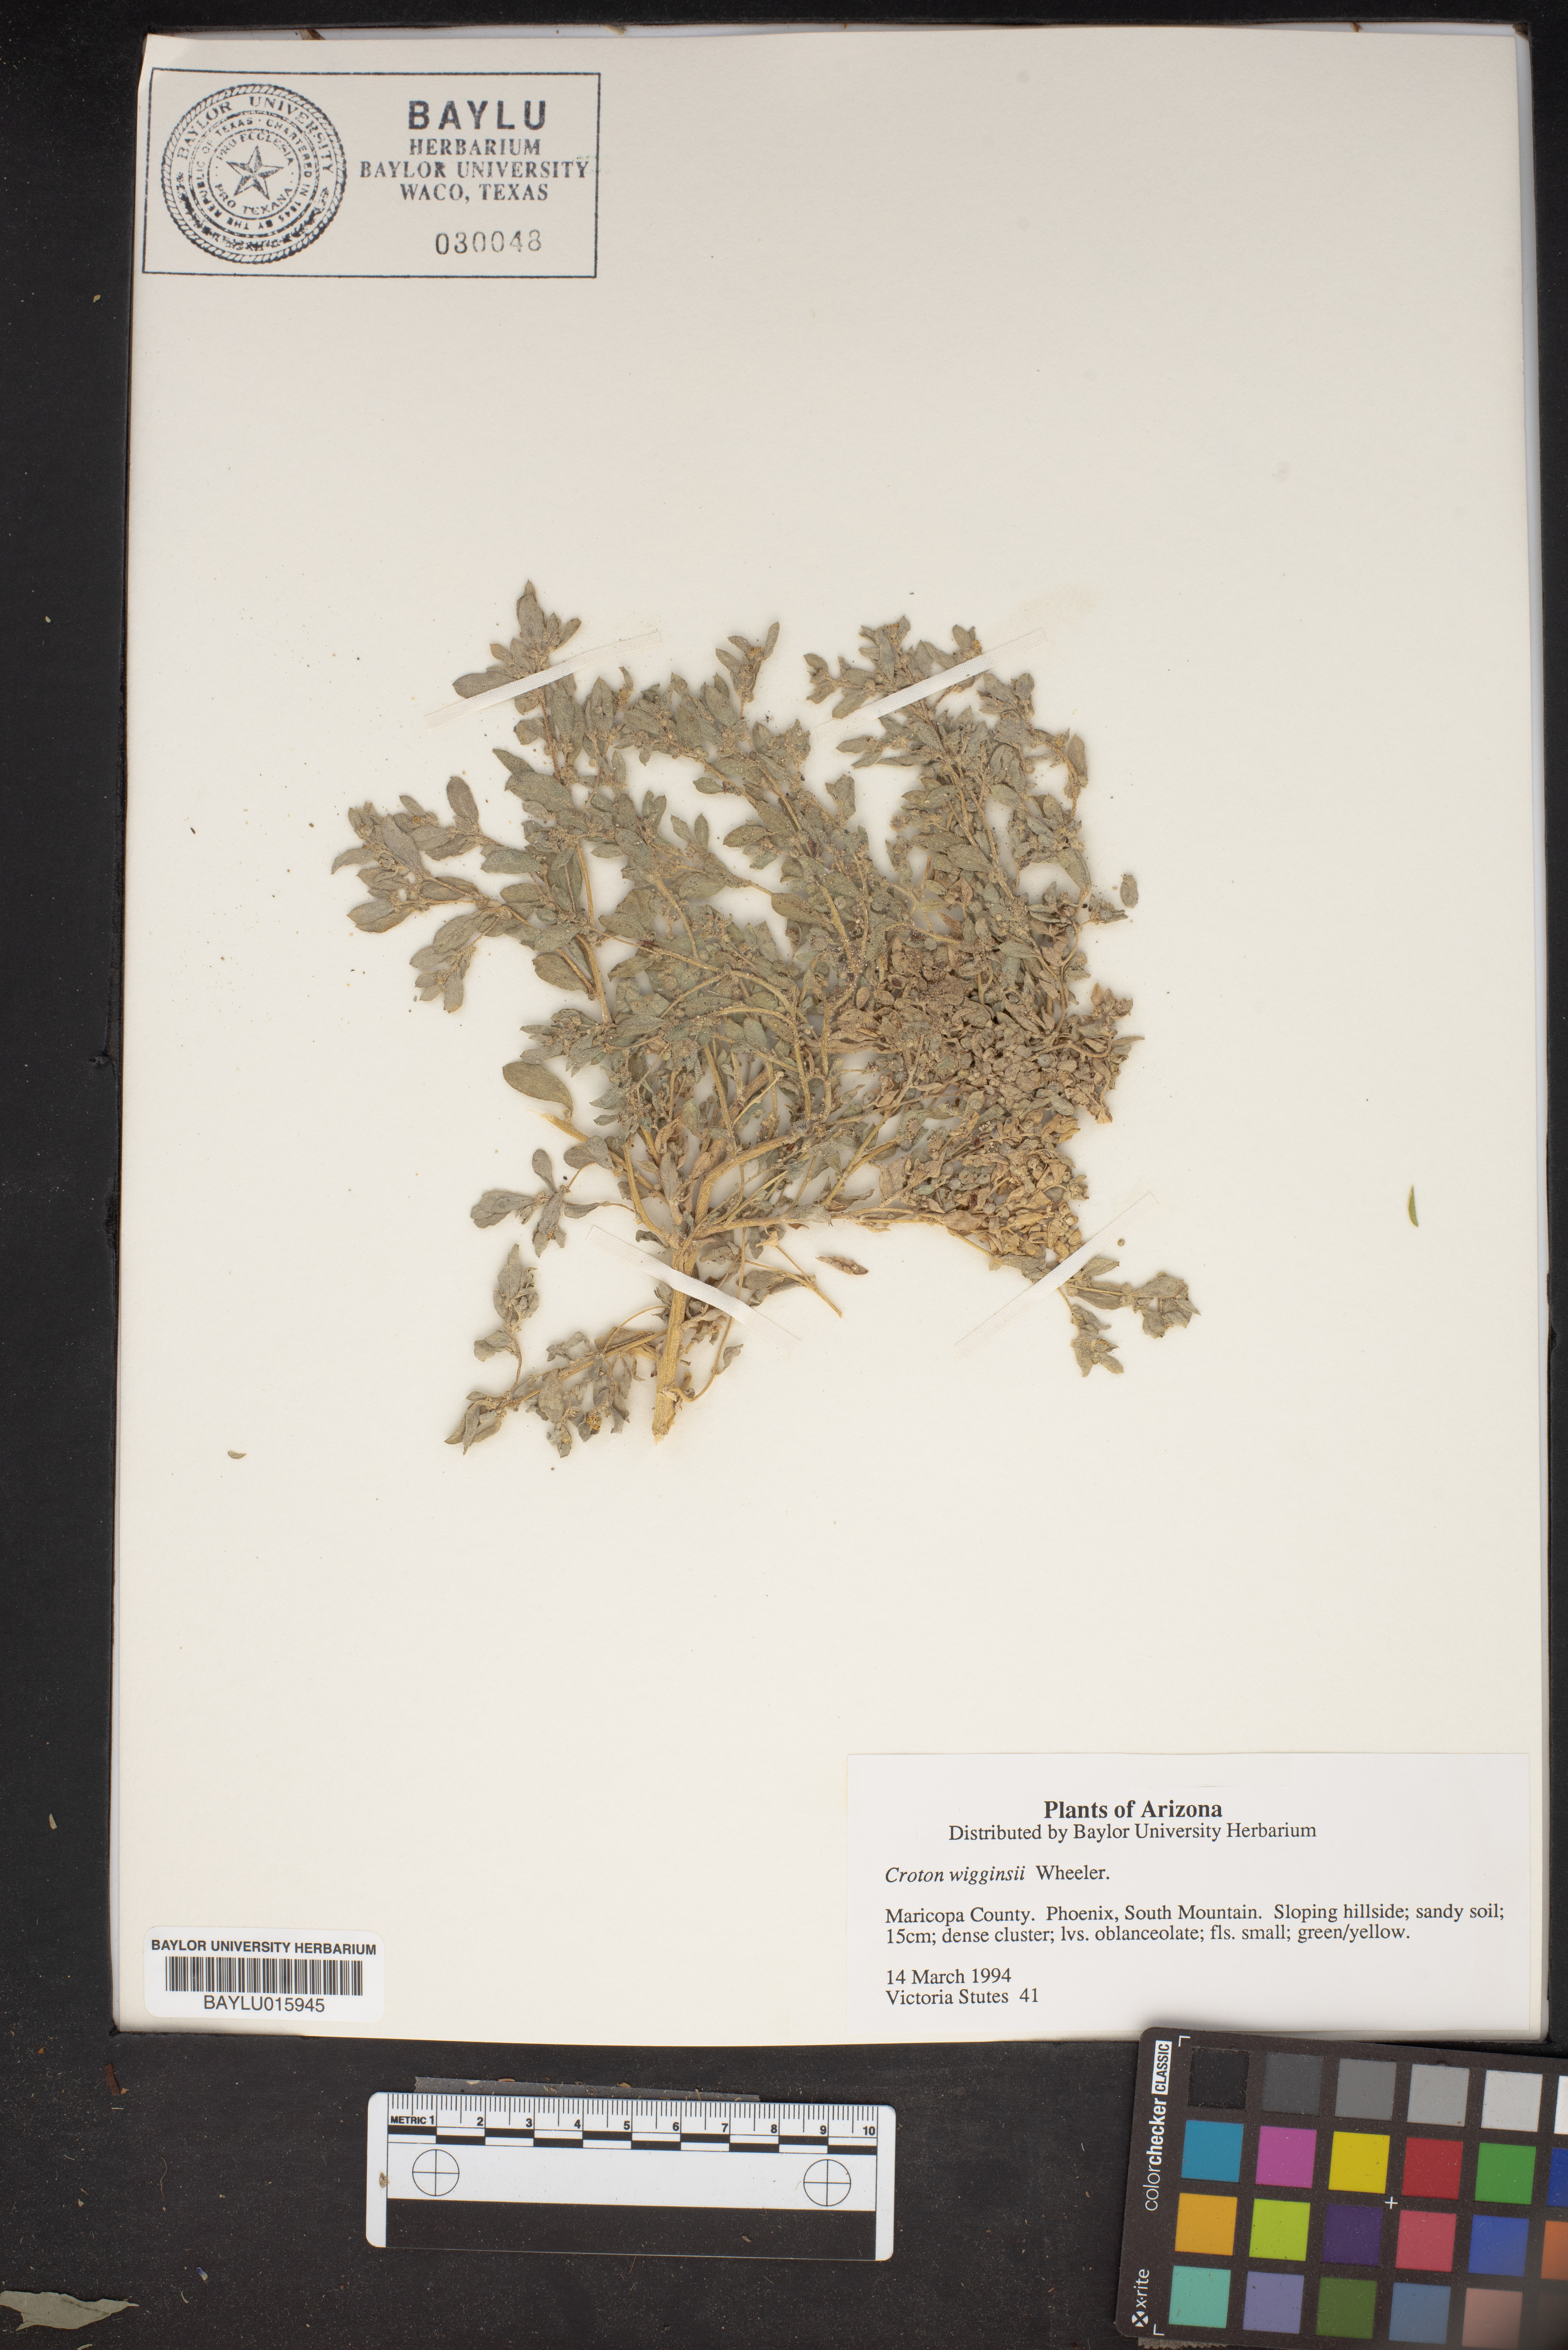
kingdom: Plantae
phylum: Tracheophyta
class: Magnoliopsida
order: Malpighiales
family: Euphorbiaceae
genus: Croton
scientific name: Croton wigginsii
